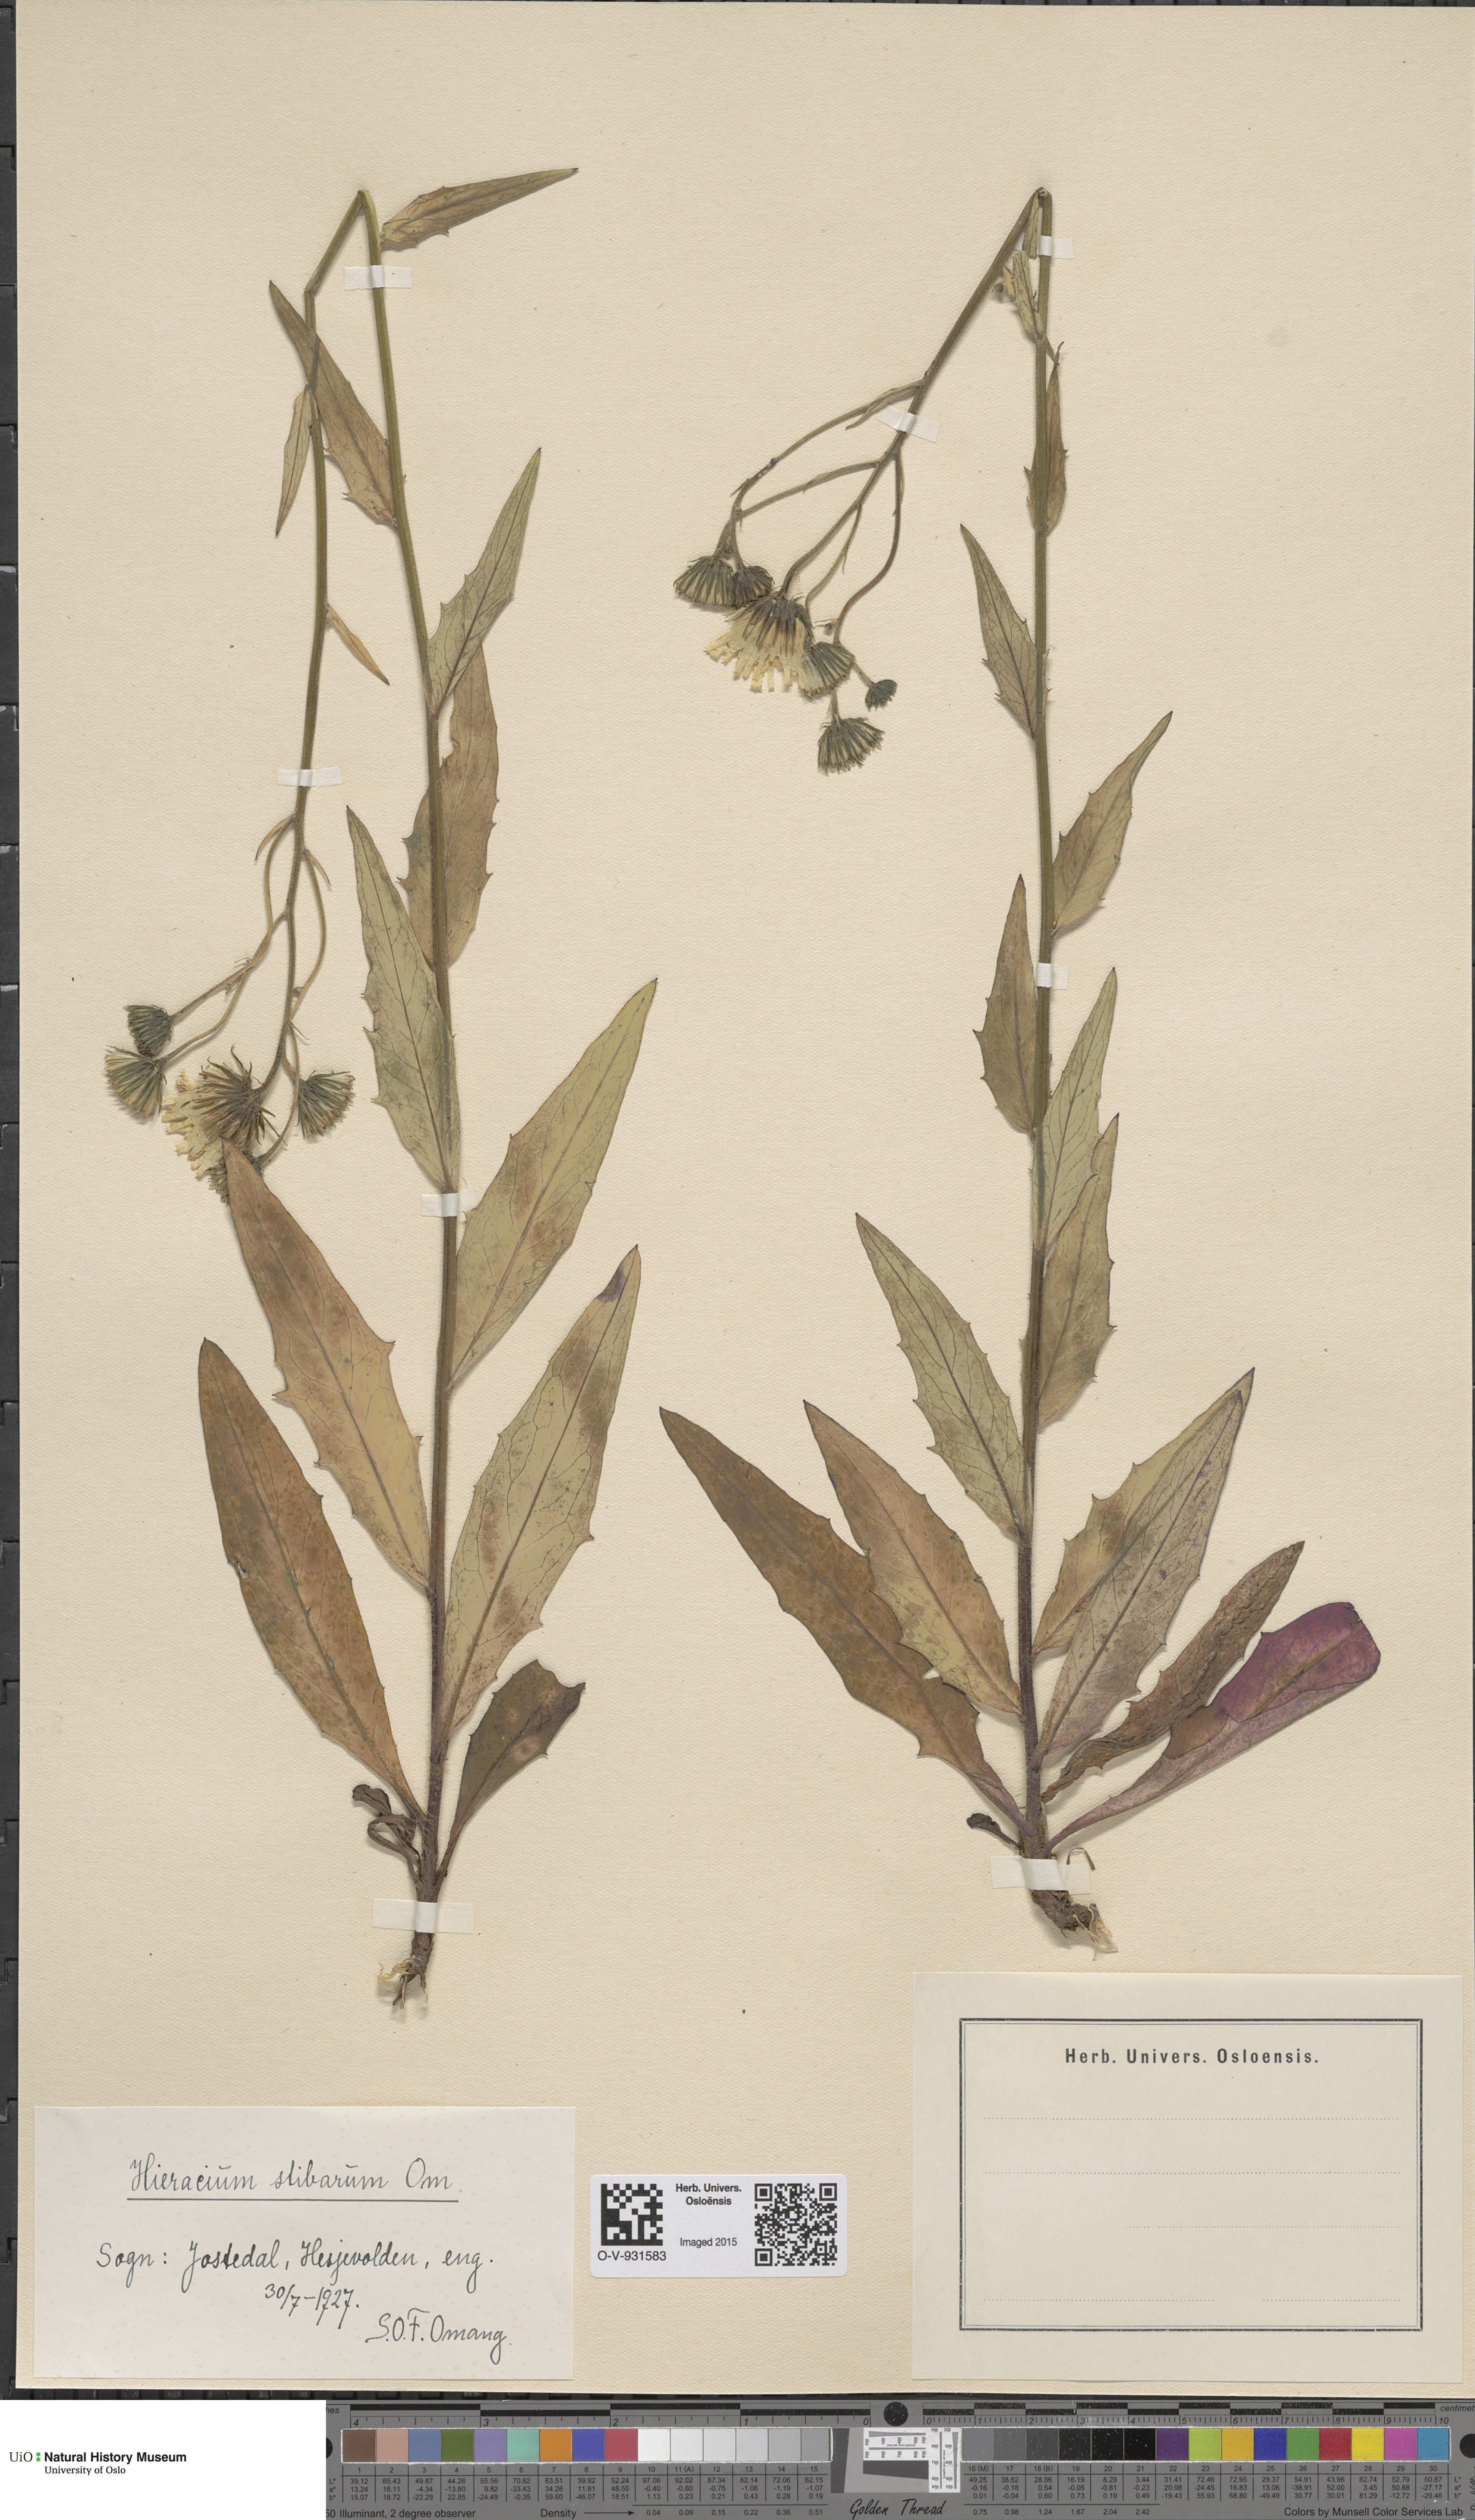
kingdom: Plantae
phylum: Tracheophyta
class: Magnoliopsida
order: Asterales
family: Asteraceae
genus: Hieracium
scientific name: Hieracium
